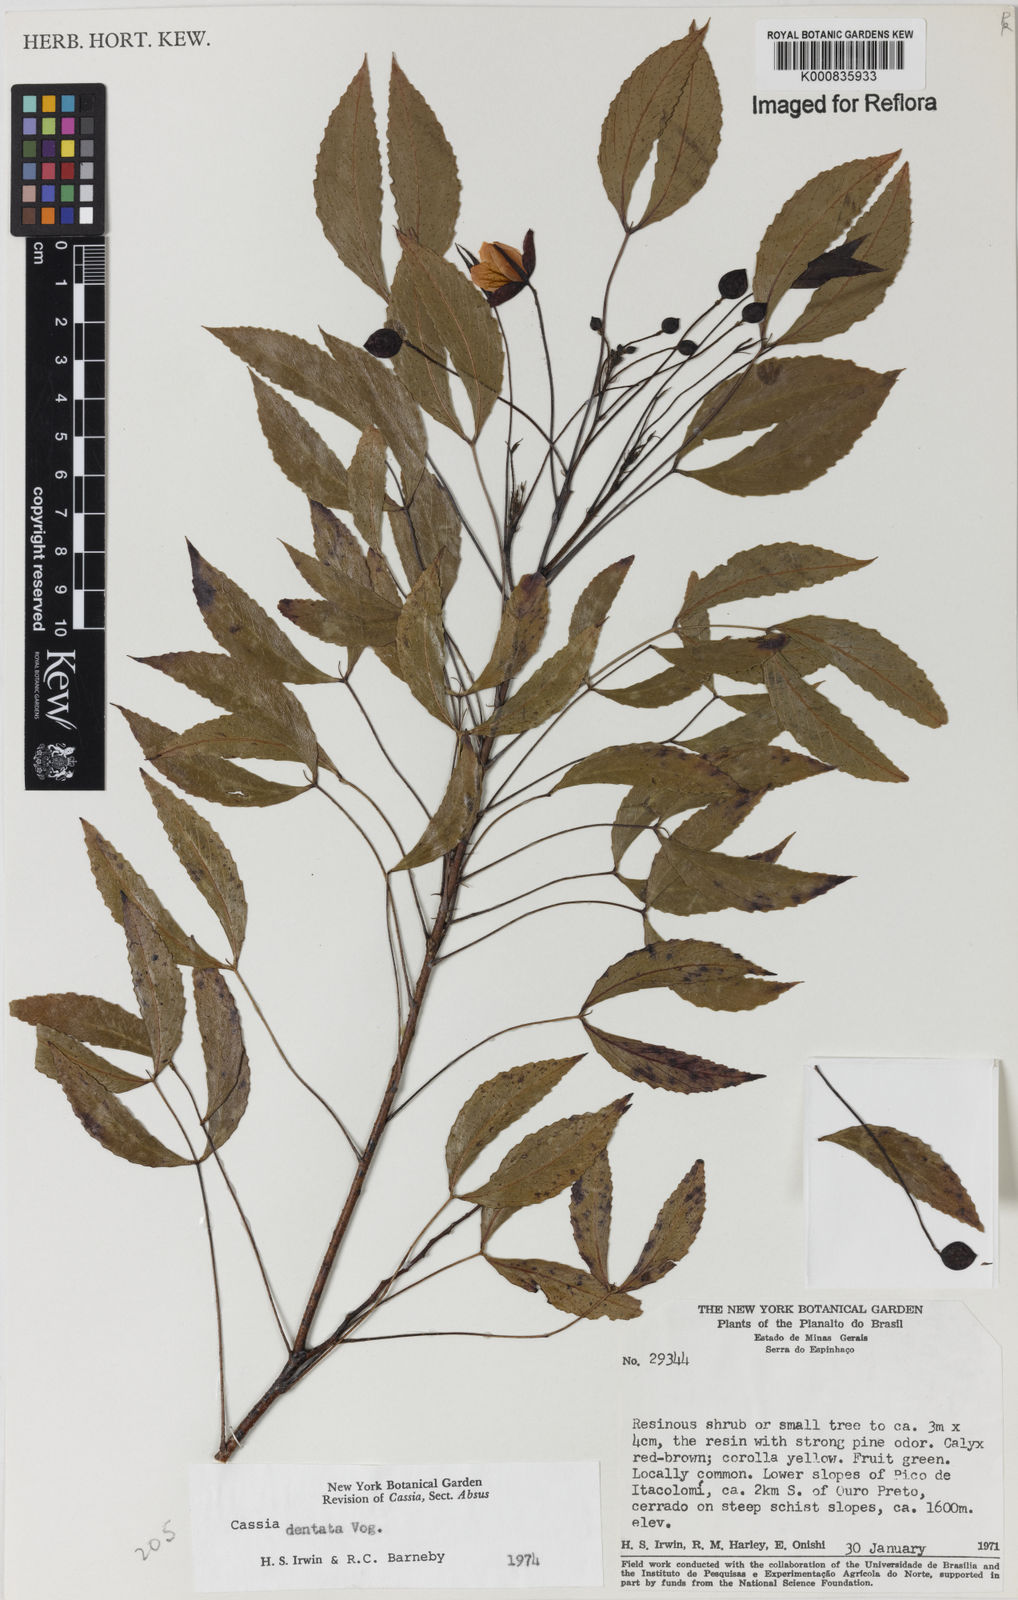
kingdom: Plantae
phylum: Tracheophyta
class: Magnoliopsida
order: Fabales
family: Fabaceae
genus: Chamaecrista
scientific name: Chamaecrista dentata
